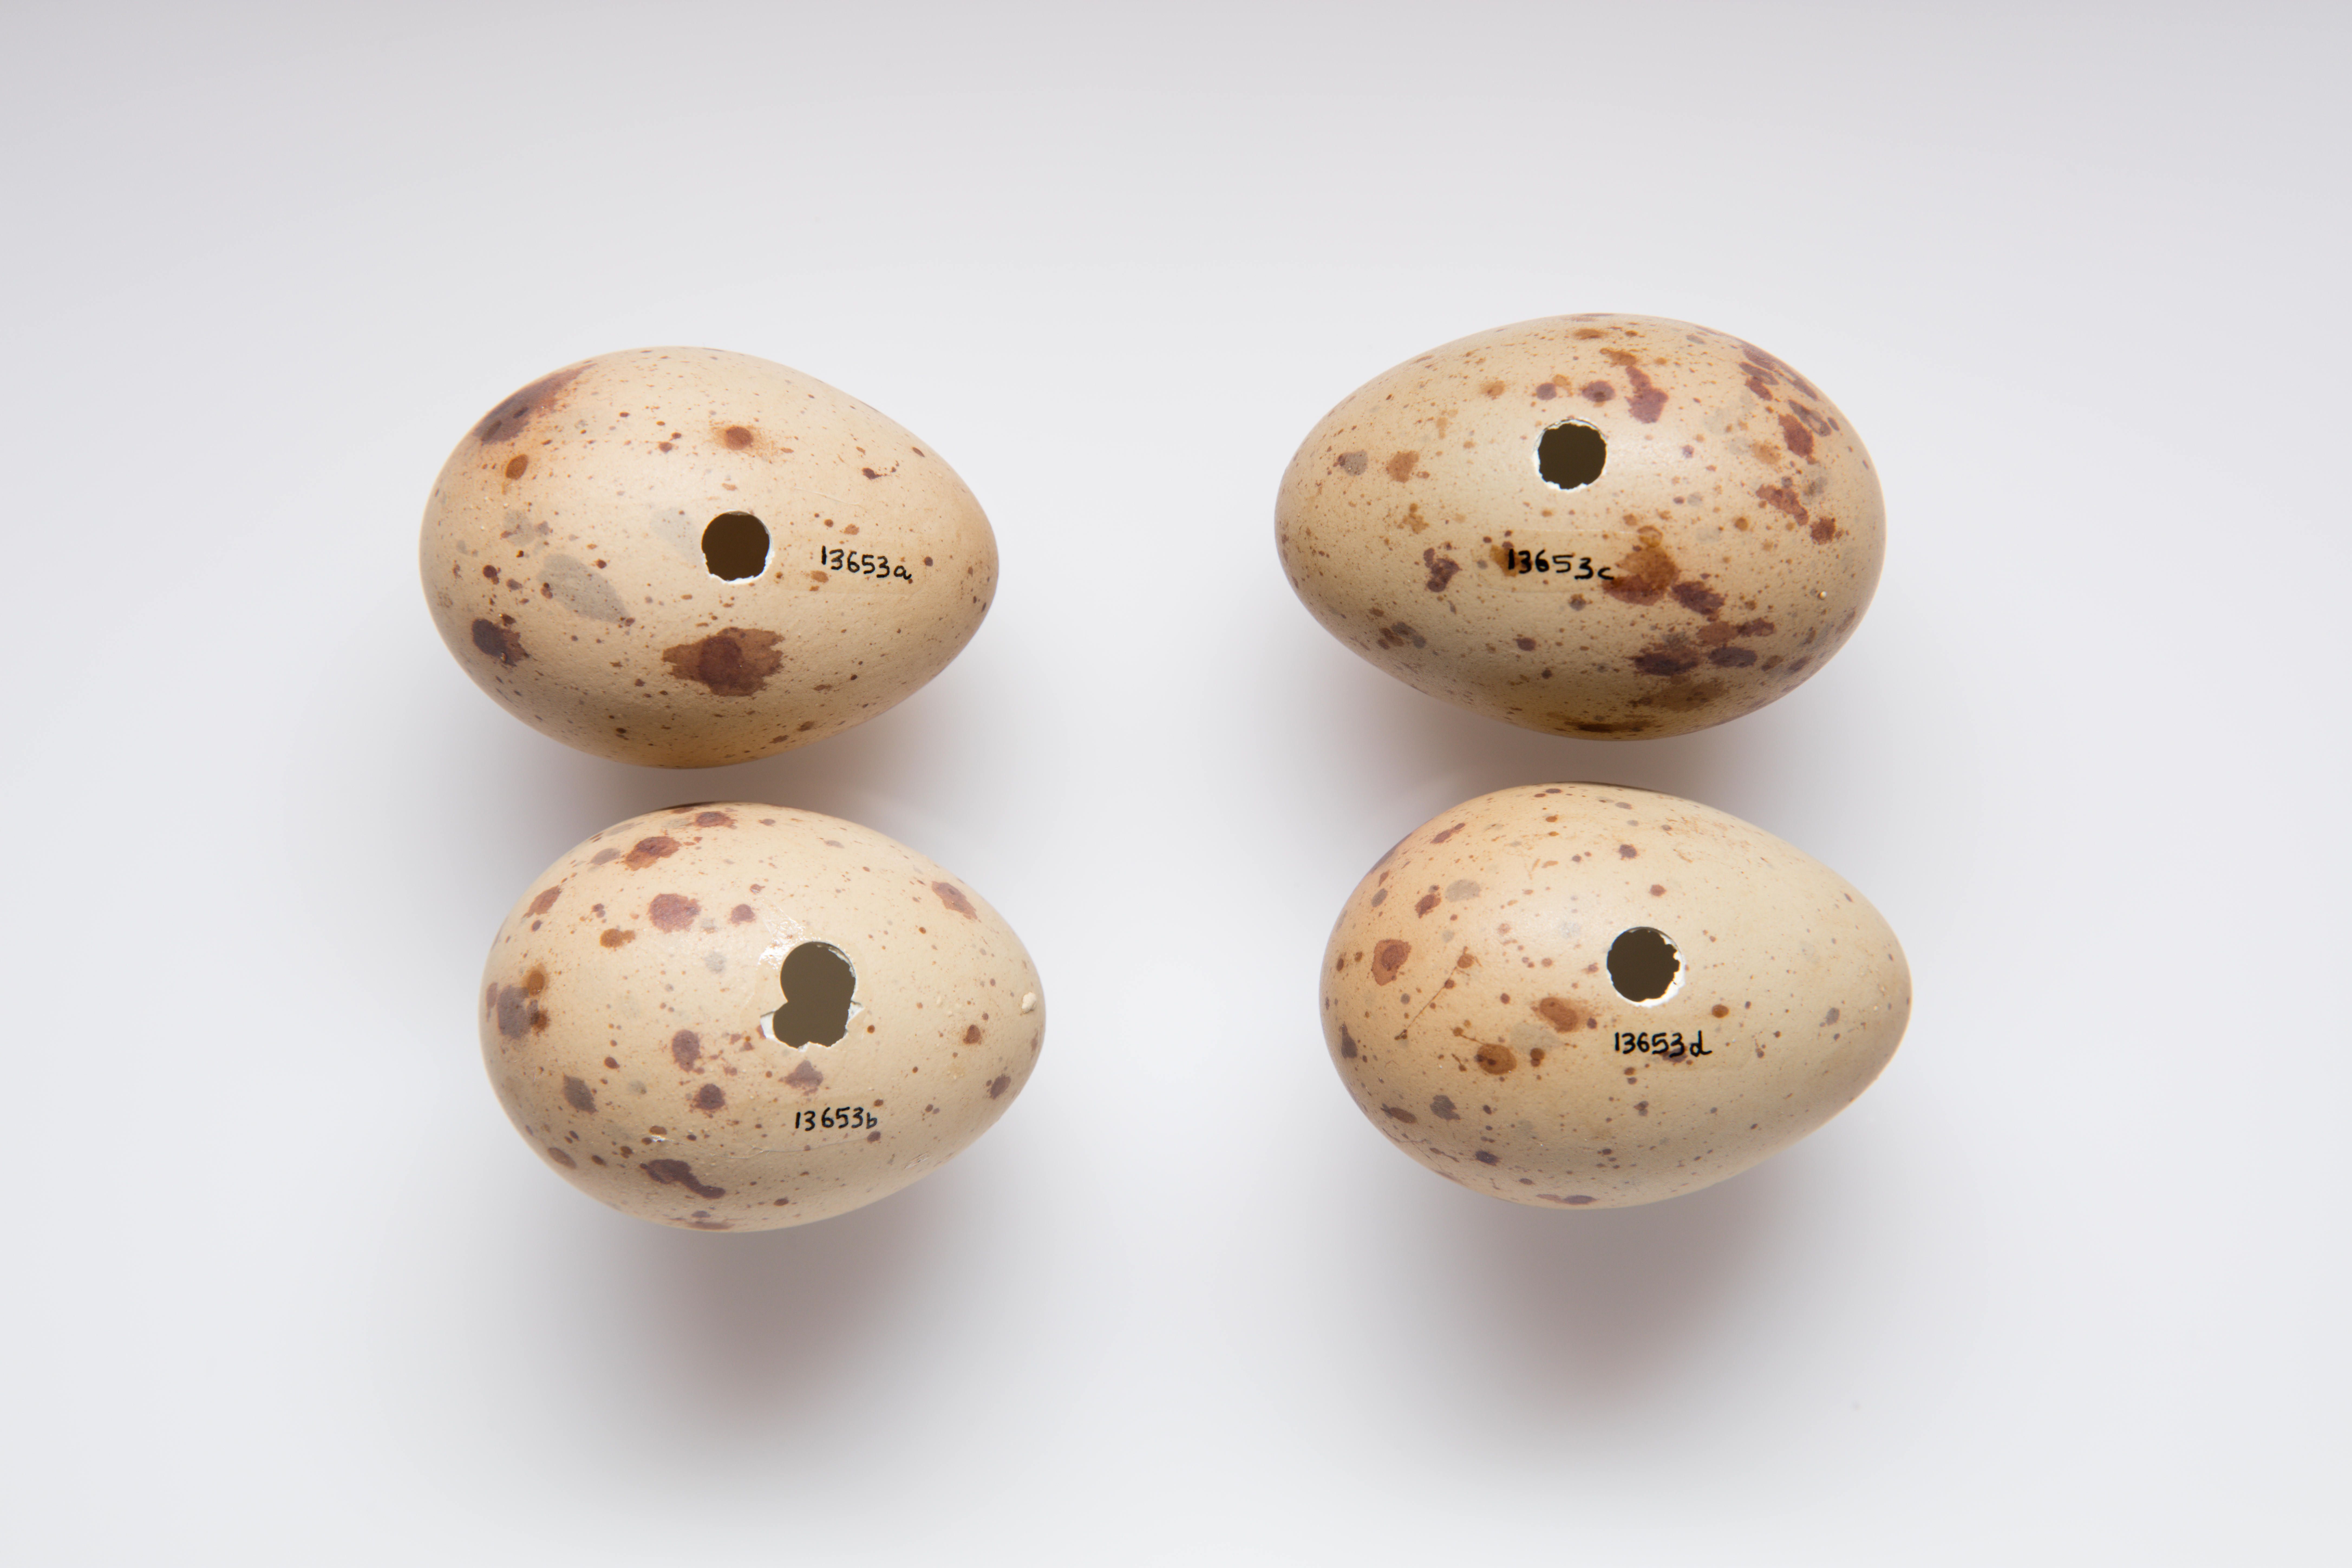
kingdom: Animalia
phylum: Chordata
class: Aves
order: Gruiformes
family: Rallidae
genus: Porphyrio
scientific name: Porphyrio melanotus
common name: Australasian swamphen
